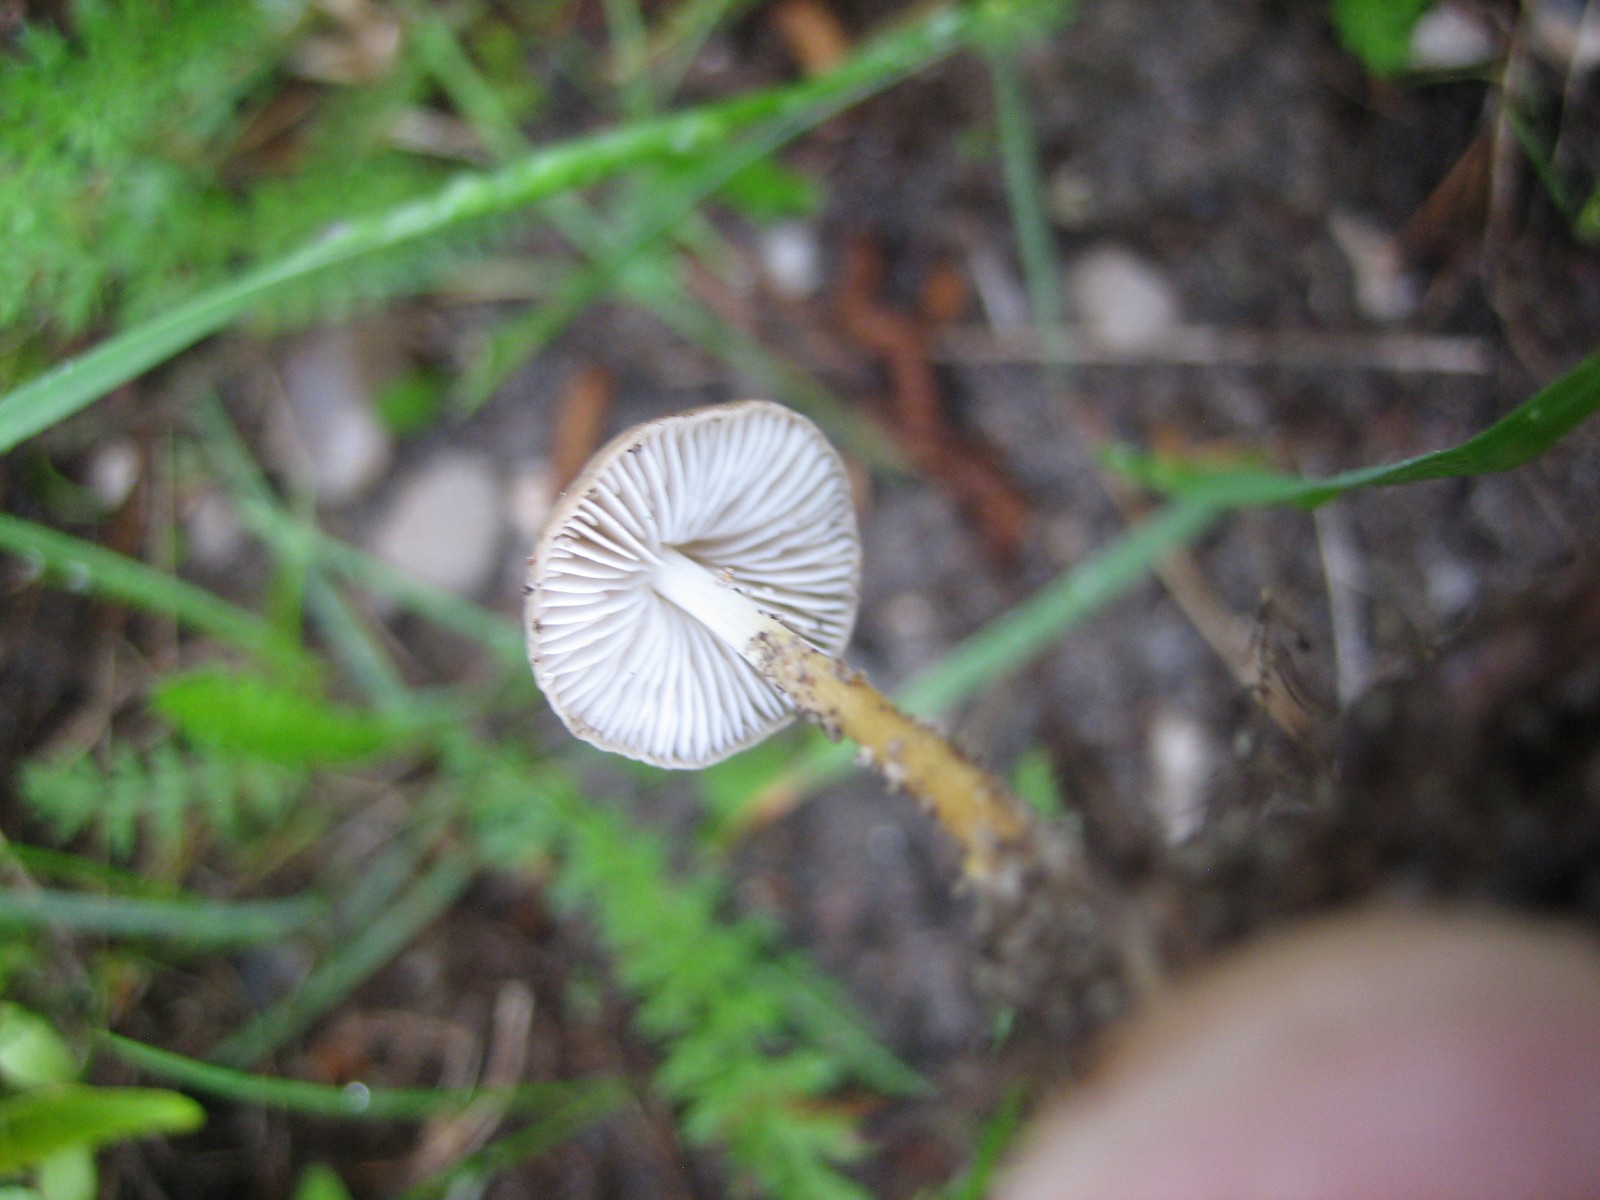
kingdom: Fungi
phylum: Basidiomycota
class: Agaricomycetes
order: Agaricales
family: Physalacriaceae
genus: Strobilurus
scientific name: Strobilurus esculentus
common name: gran-koglehat
